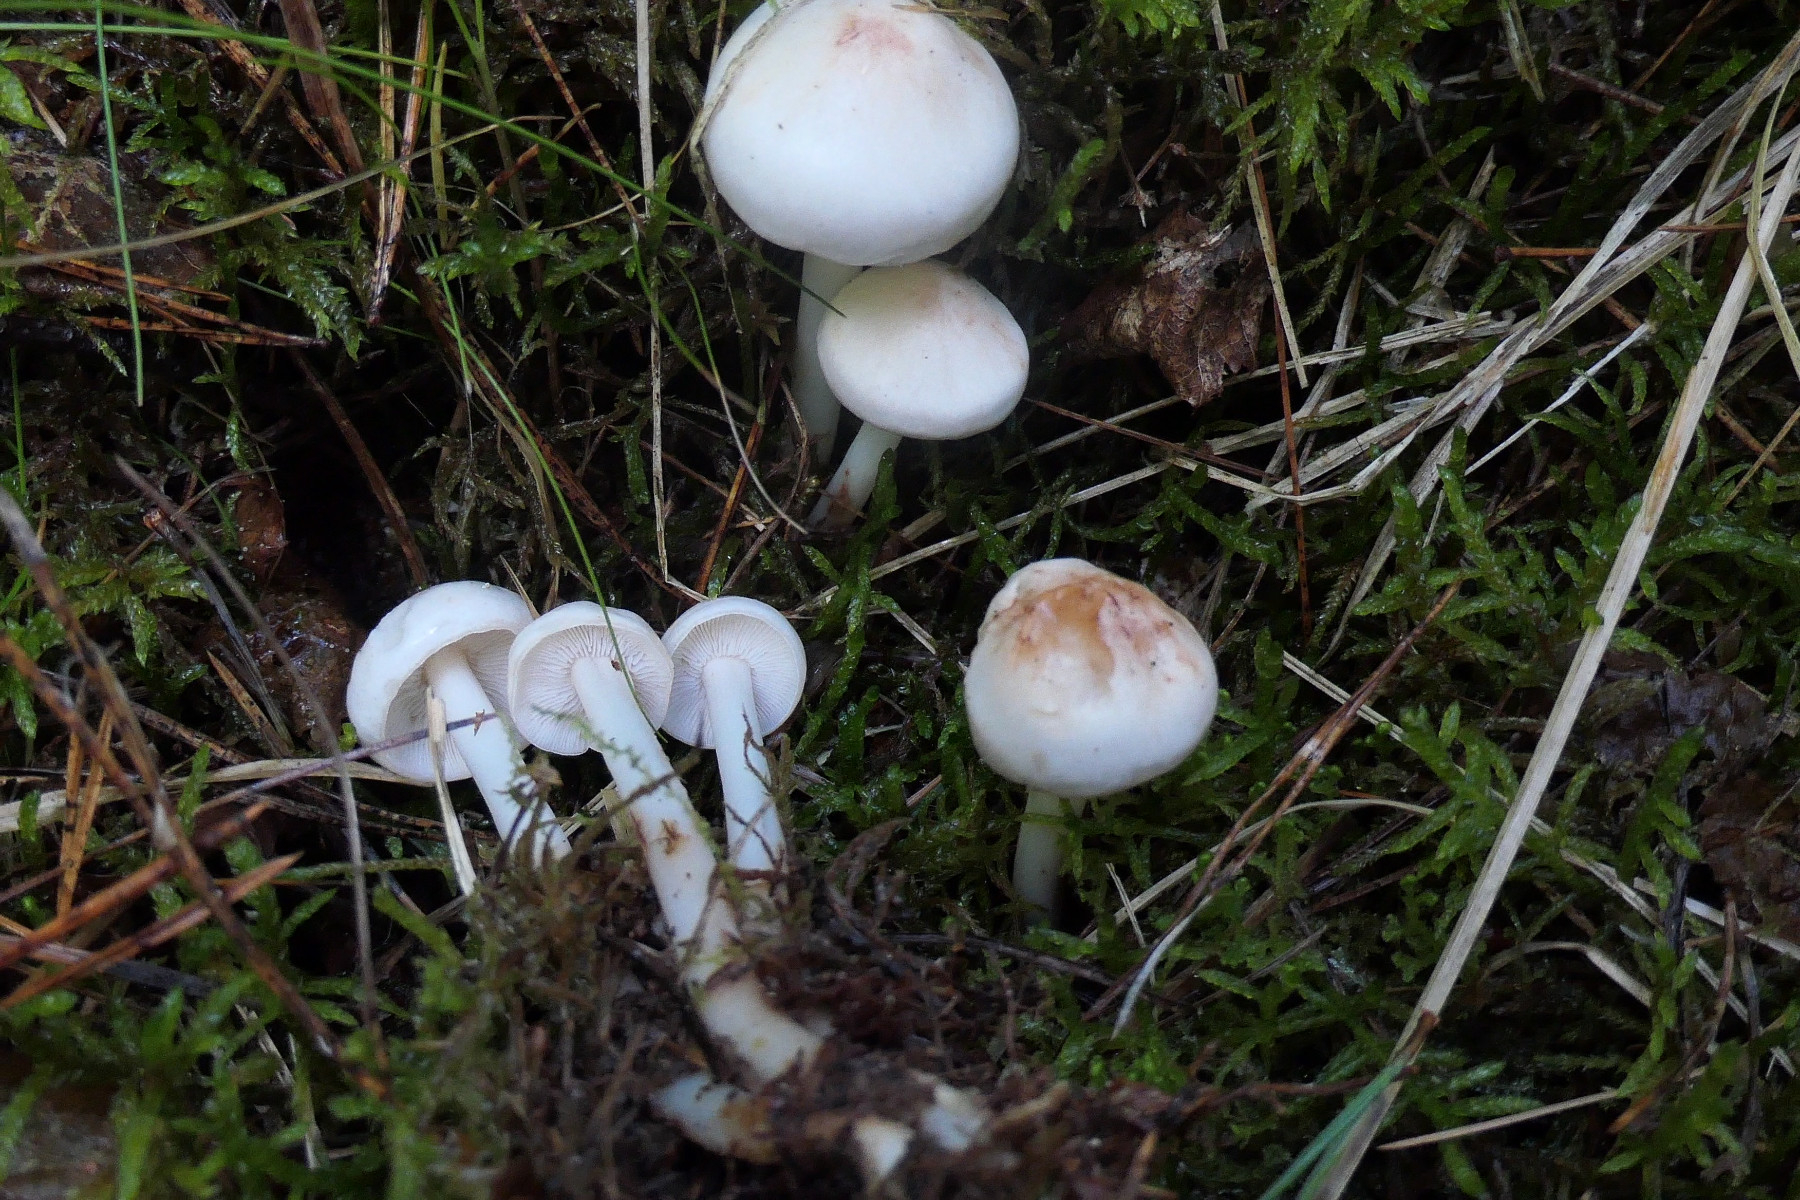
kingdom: Fungi
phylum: Basidiomycota
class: Agaricomycetes
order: Agaricales
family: Omphalotaceae
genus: Rhodocollybia
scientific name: Rhodocollybia maculata
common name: plettet fladhat
